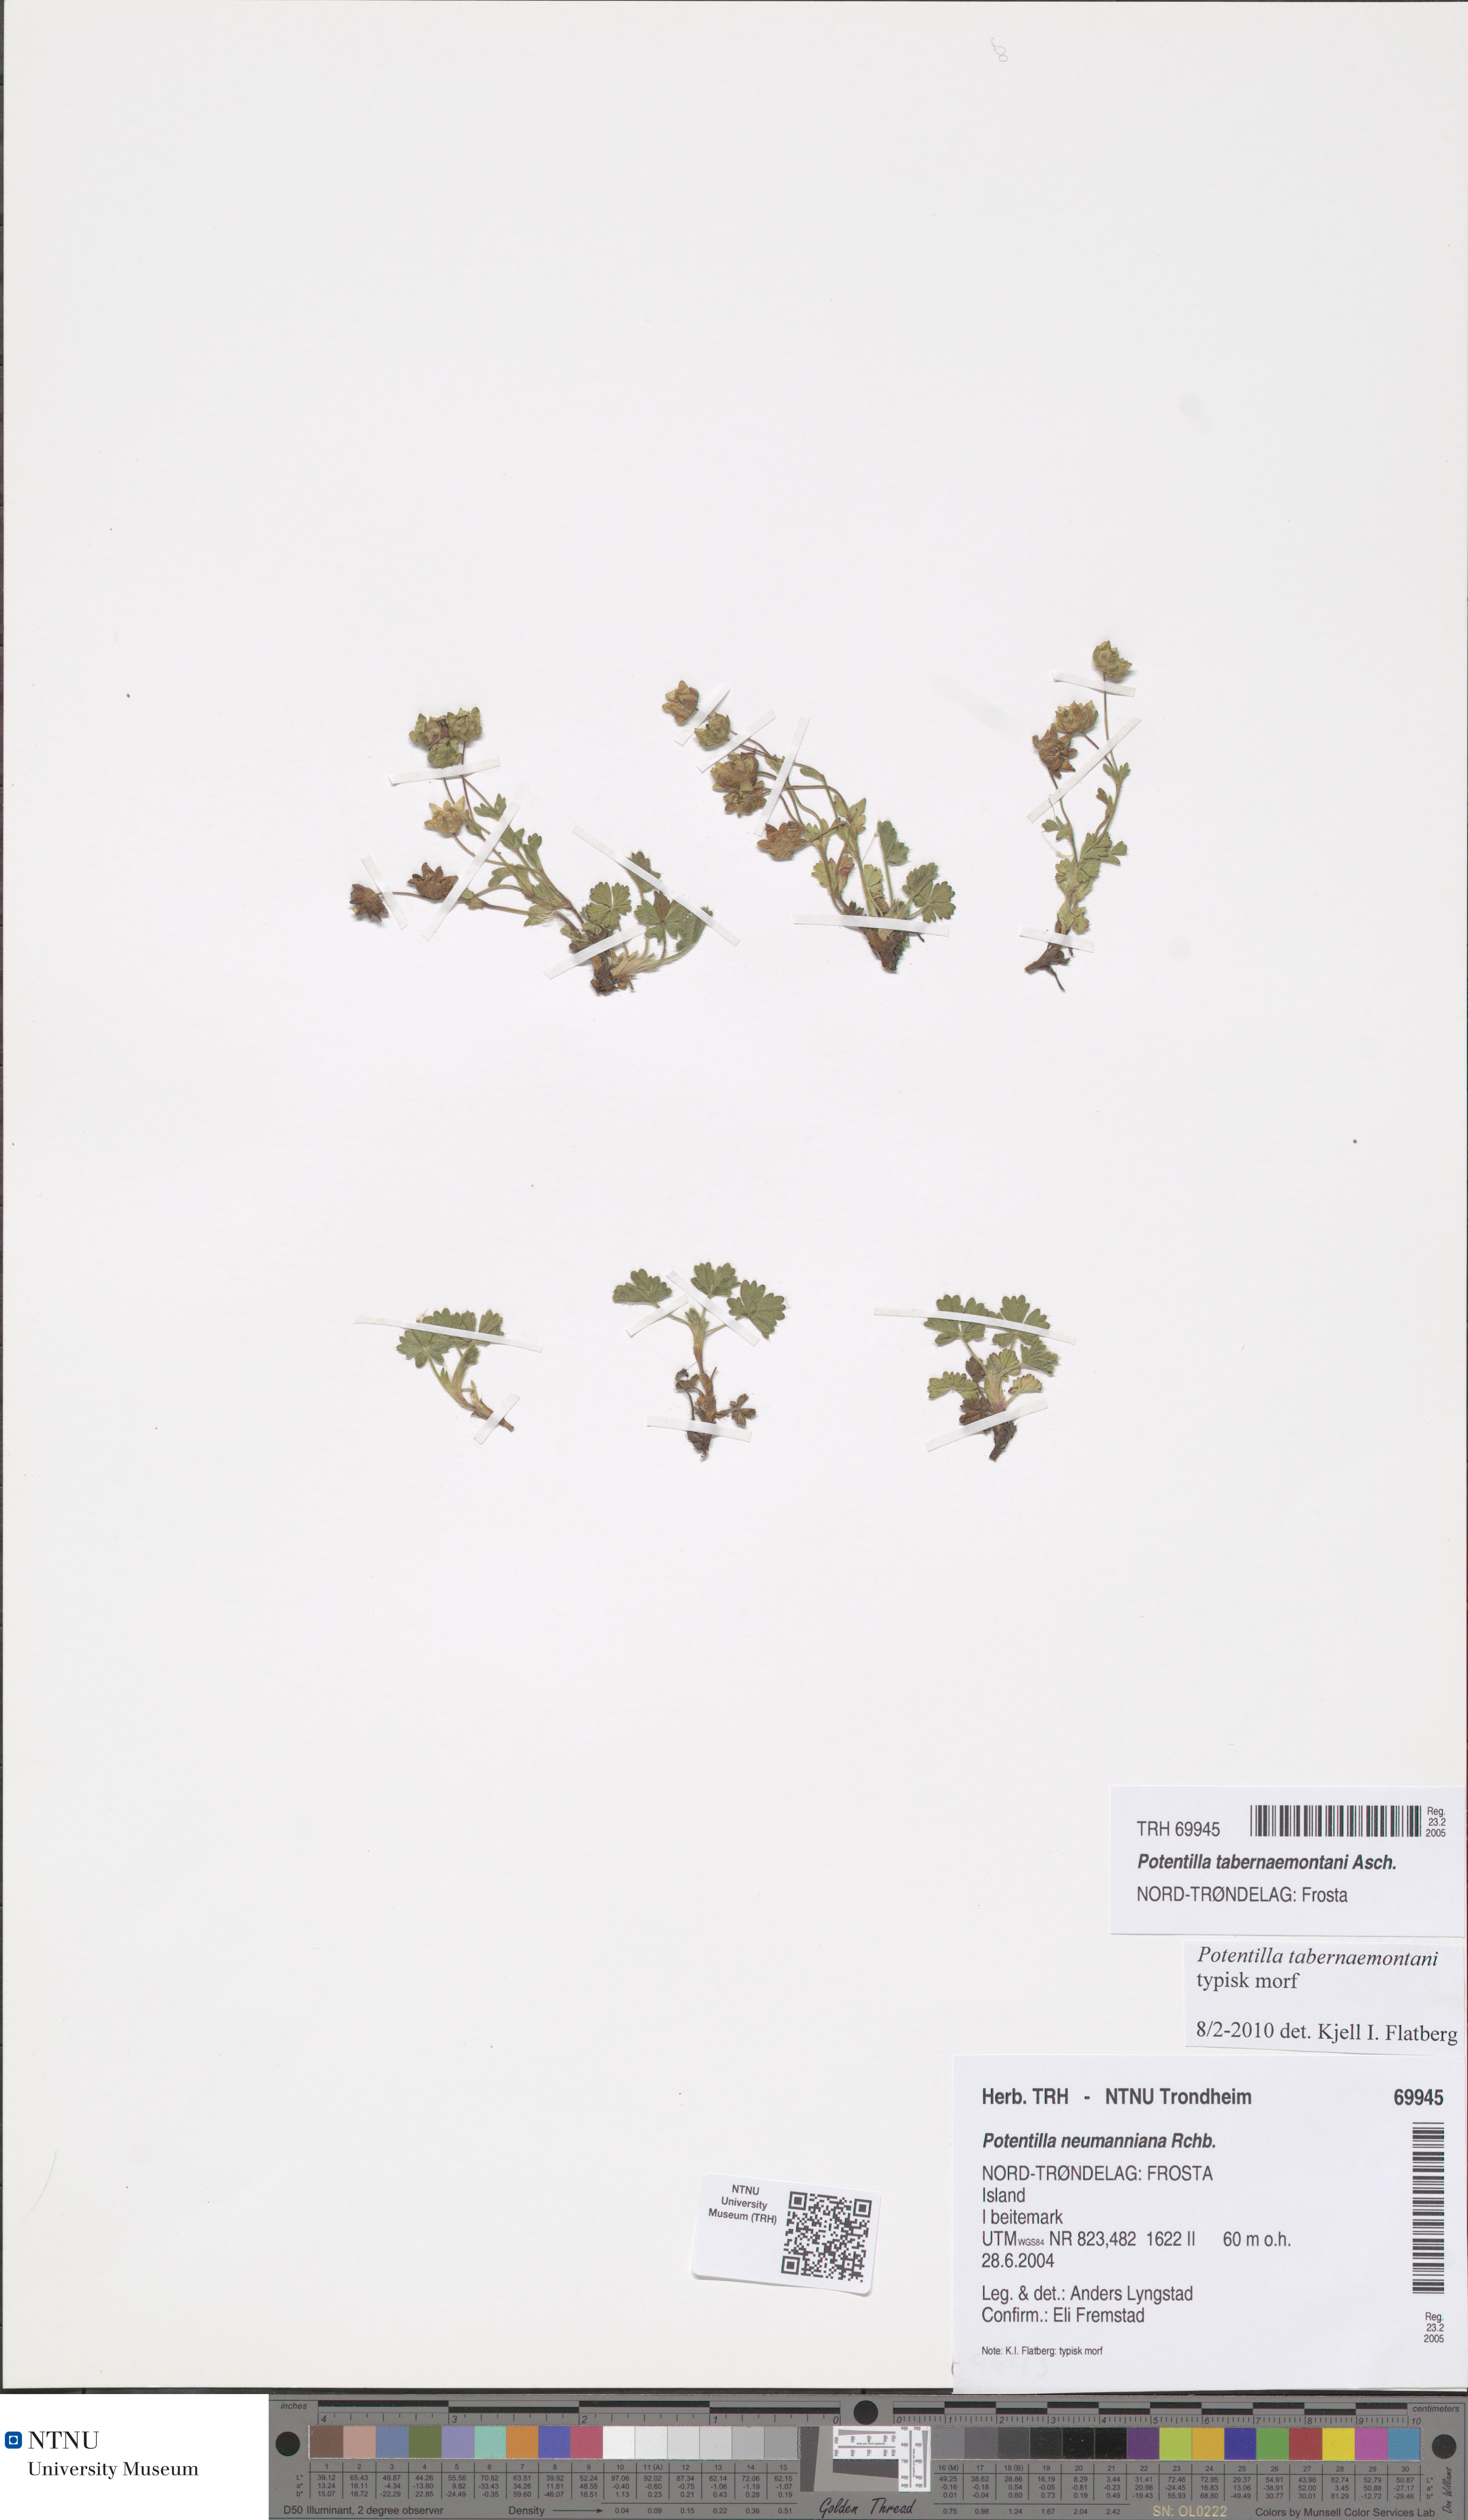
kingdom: Plantae
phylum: Tracheophyta
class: Magnoliopsida
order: Rosales
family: Rosaceae
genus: Potentilla
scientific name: Potentilla verna
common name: Spring cinquefoil
